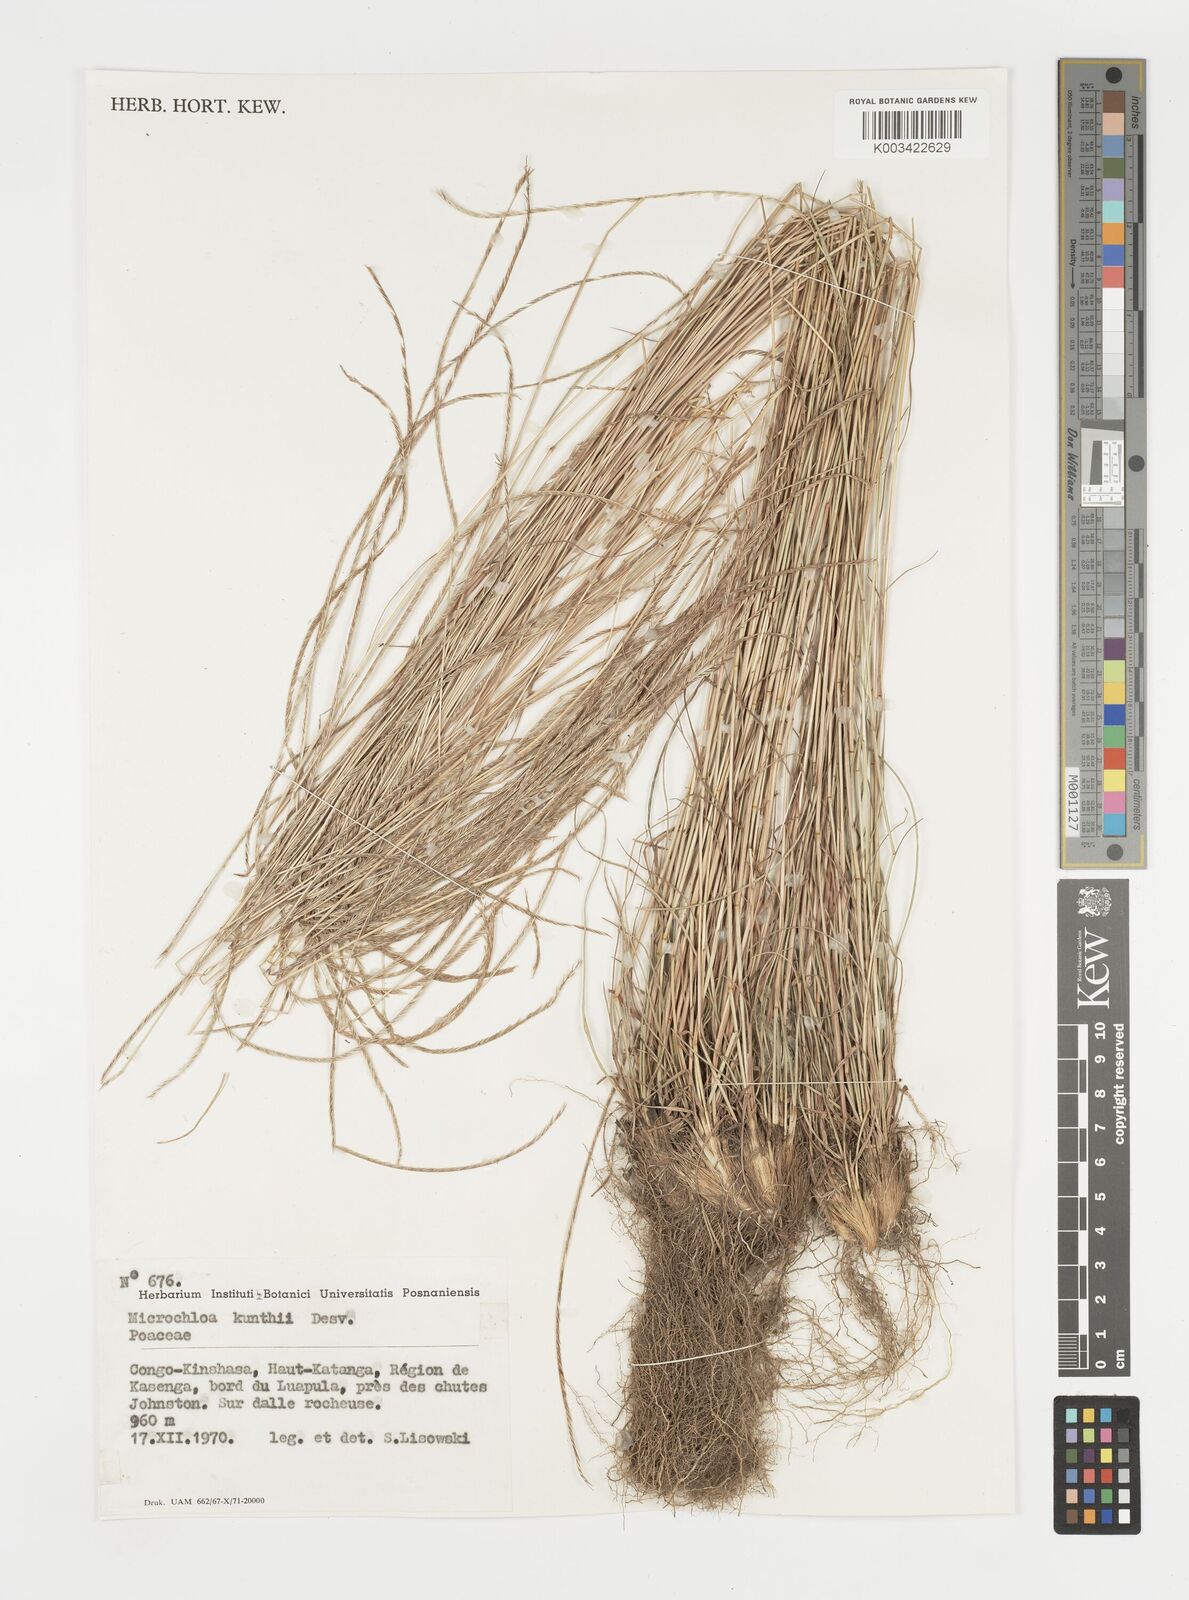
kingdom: Plantae
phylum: Tracheophyta
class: Liliopsida
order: Poales
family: Poaceae
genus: Microchloa
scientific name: Microchloa kunthii
